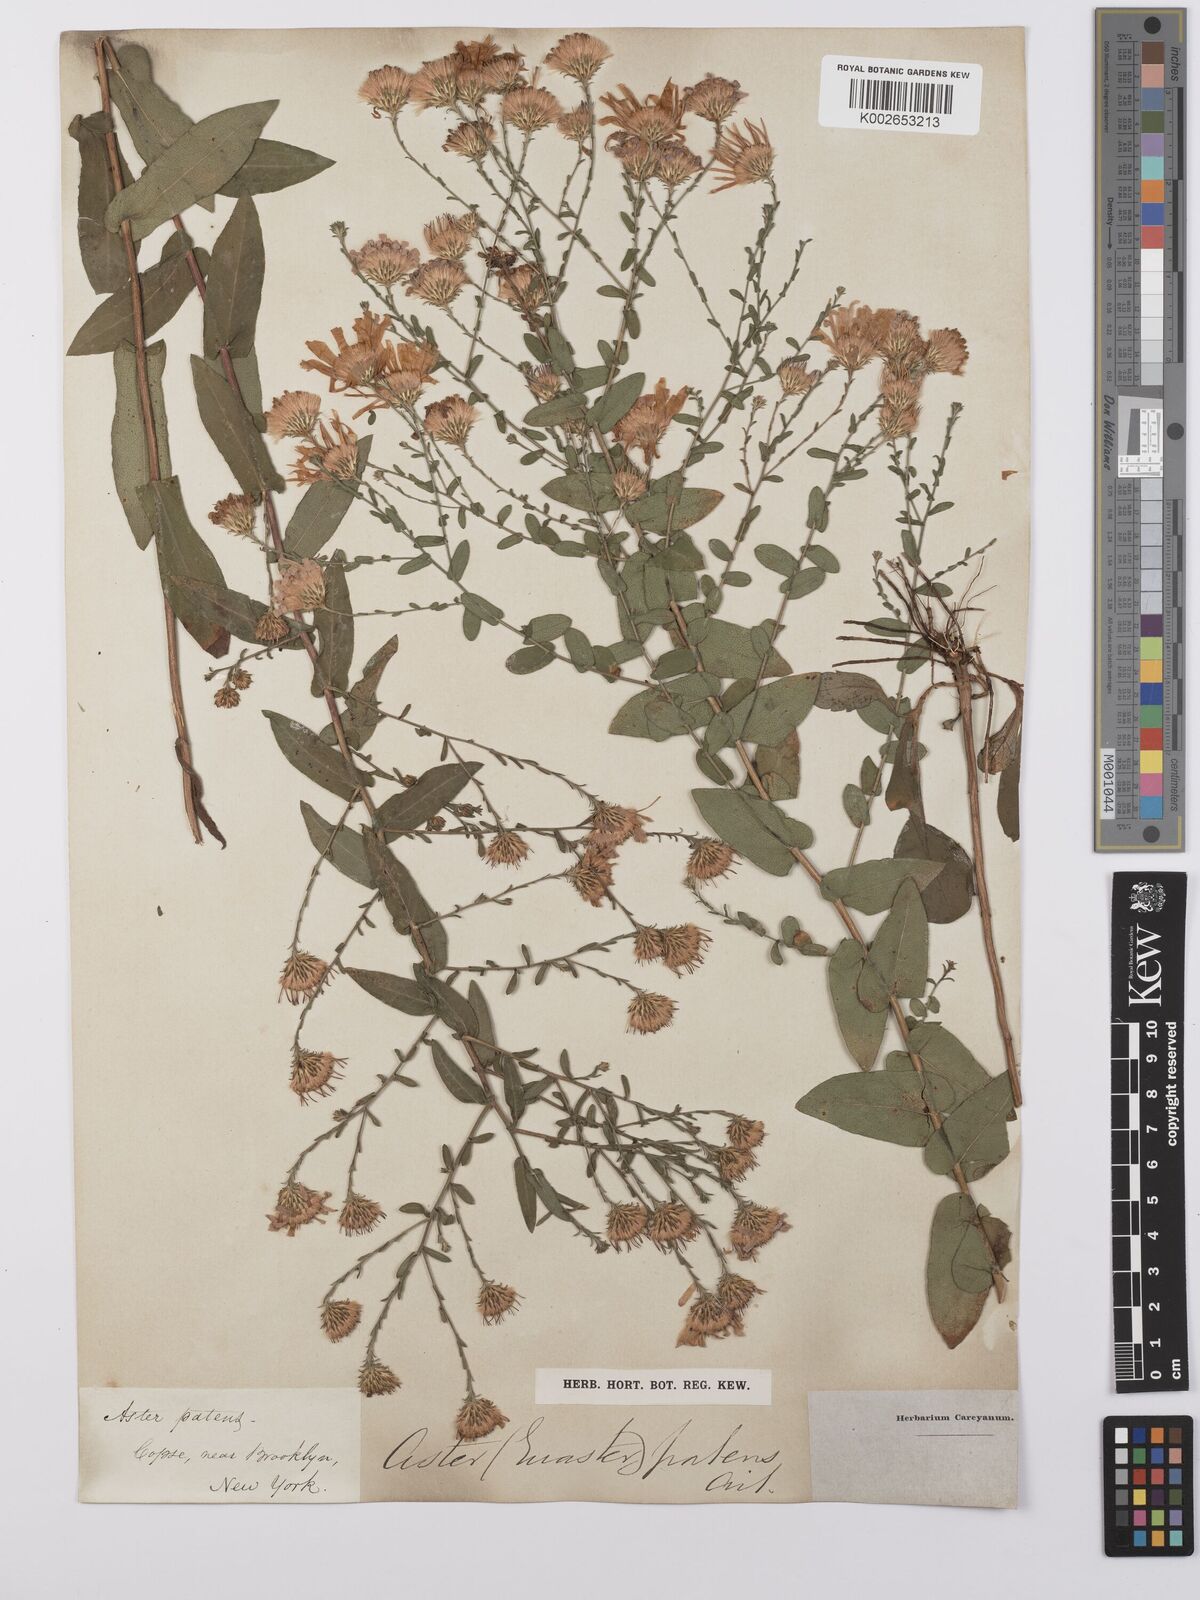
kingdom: Plantae
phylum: Tracheophyta
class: Magnoliopsida
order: Asterales
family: Asteraceae
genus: Symphyotrichum
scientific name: Symphyotrichum patens
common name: Late purple aster
